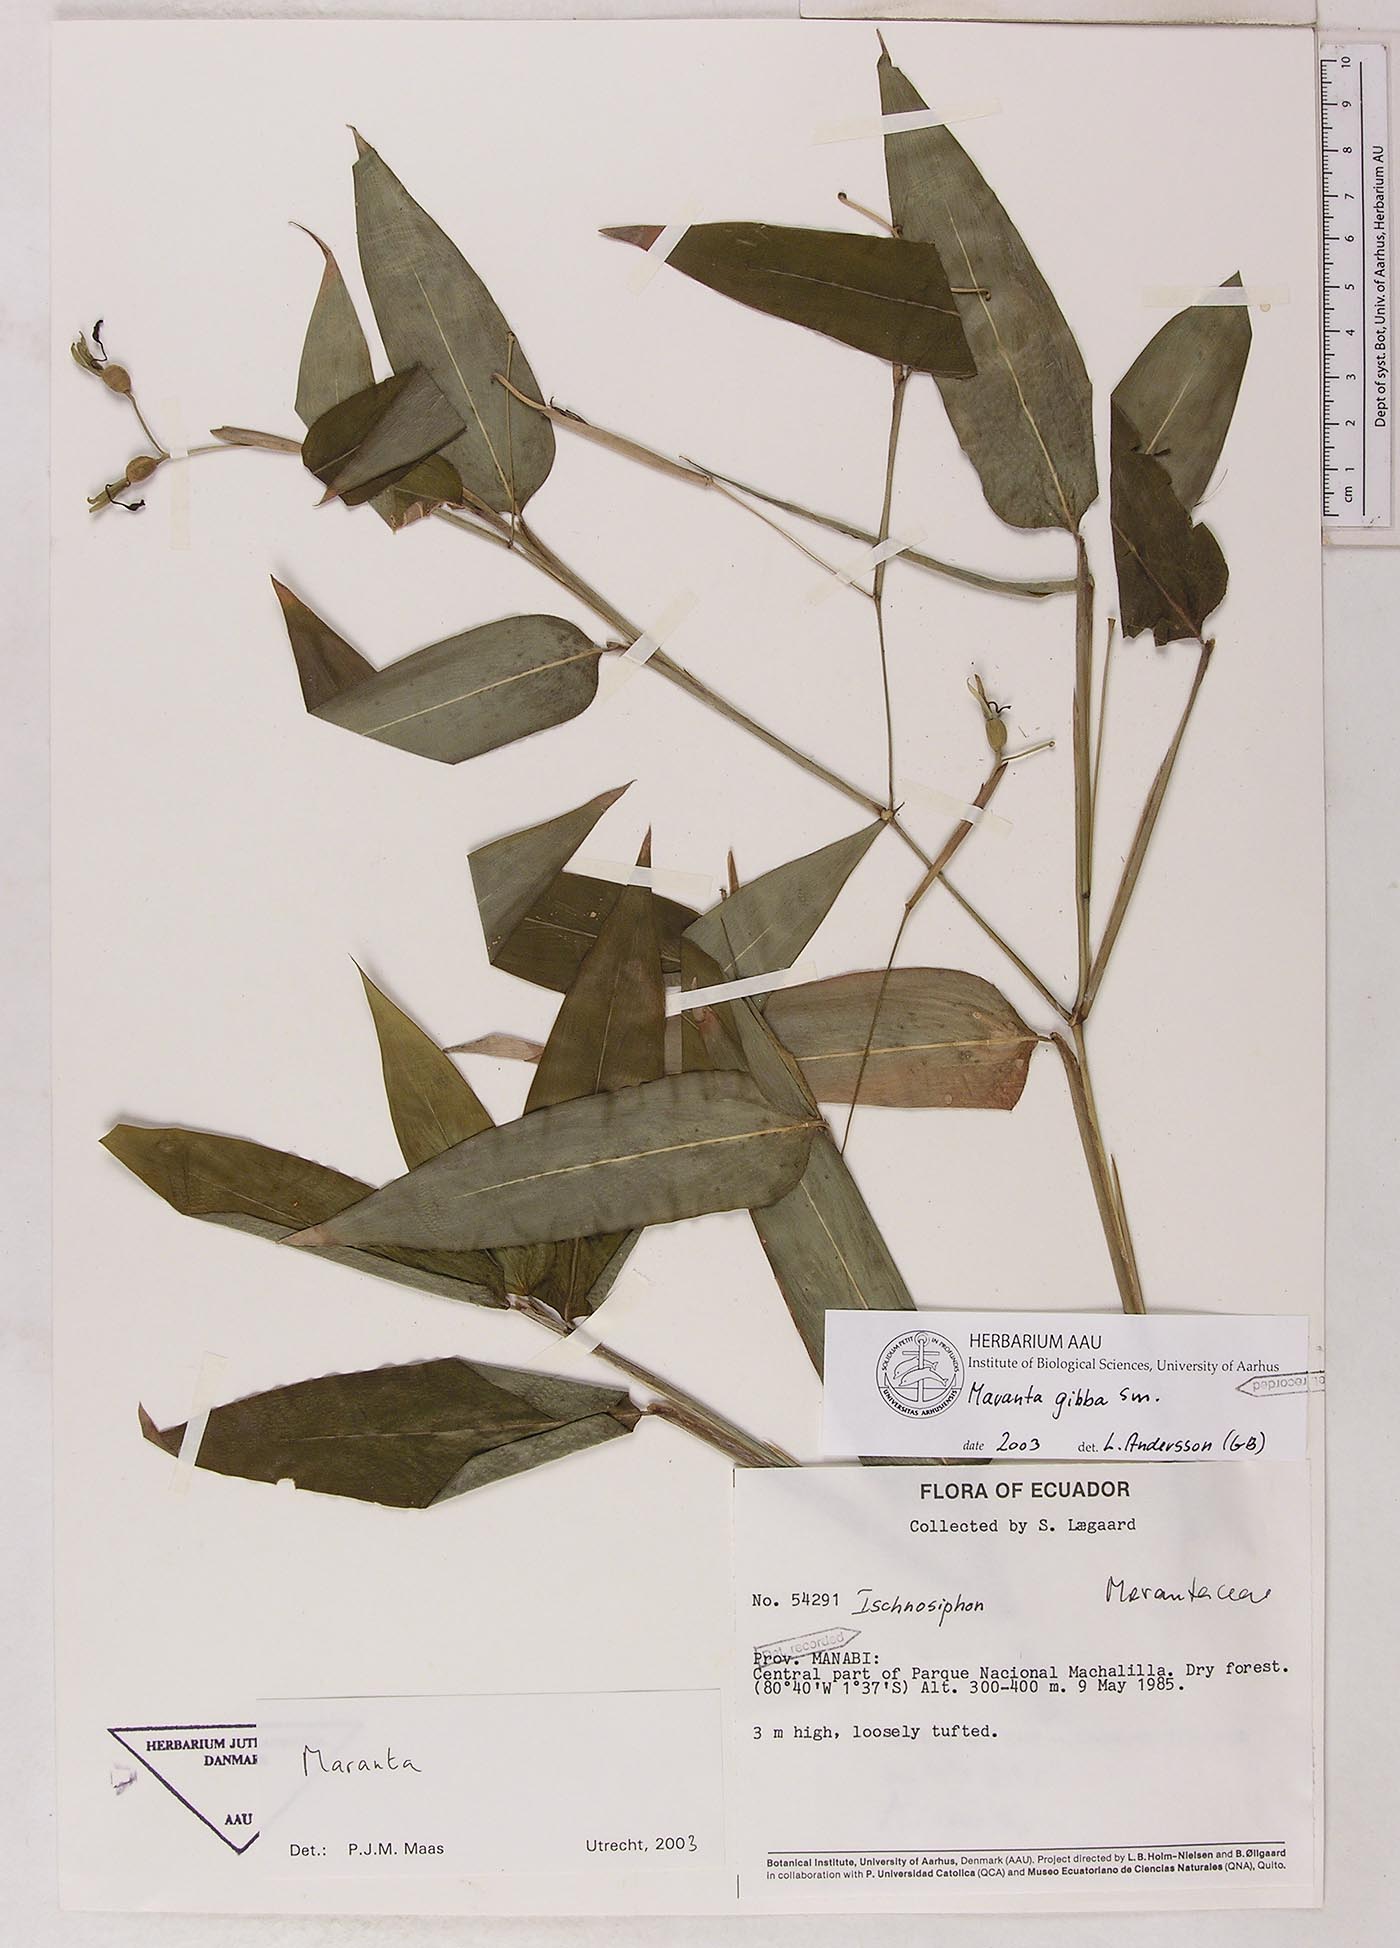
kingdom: Plantae
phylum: Tracheophyta
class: Liliopsida
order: Zingiberales
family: Marantaceae
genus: Maranta
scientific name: Maranta gibba
